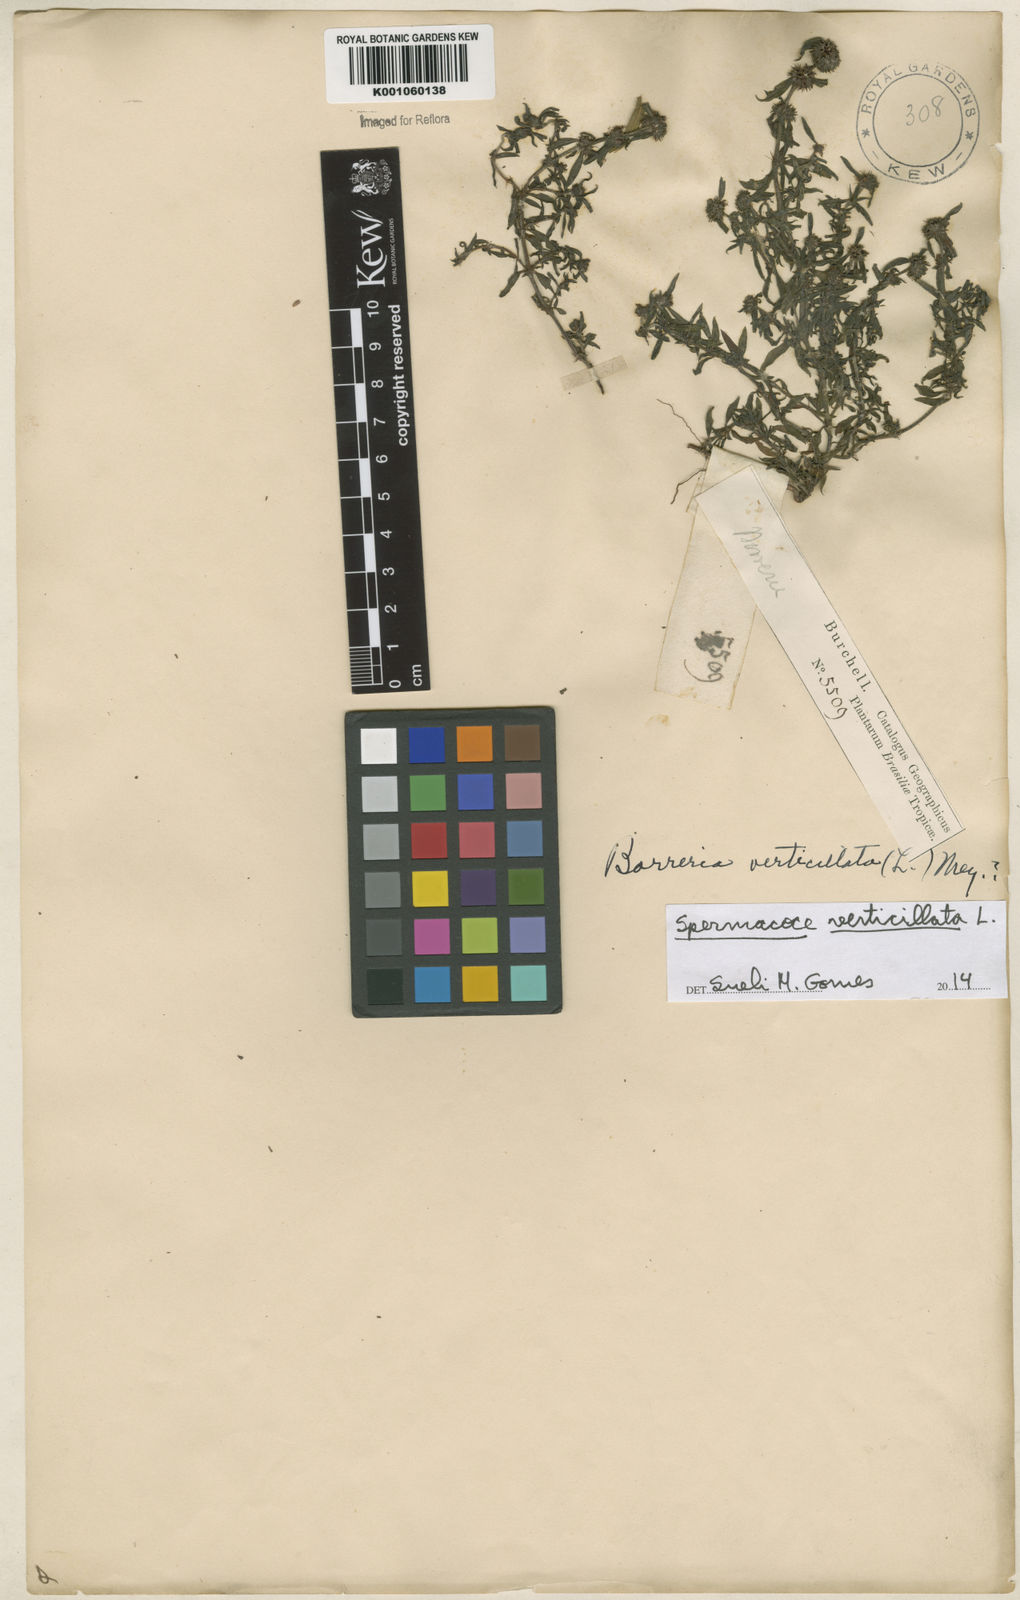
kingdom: Plantae
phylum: Tracheophyta
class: Magnoliopsida
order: Gentianales
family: Rubiaceae
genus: Spermacoce
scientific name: Spermacoce verticillata
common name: Shrubby false buttonweed
